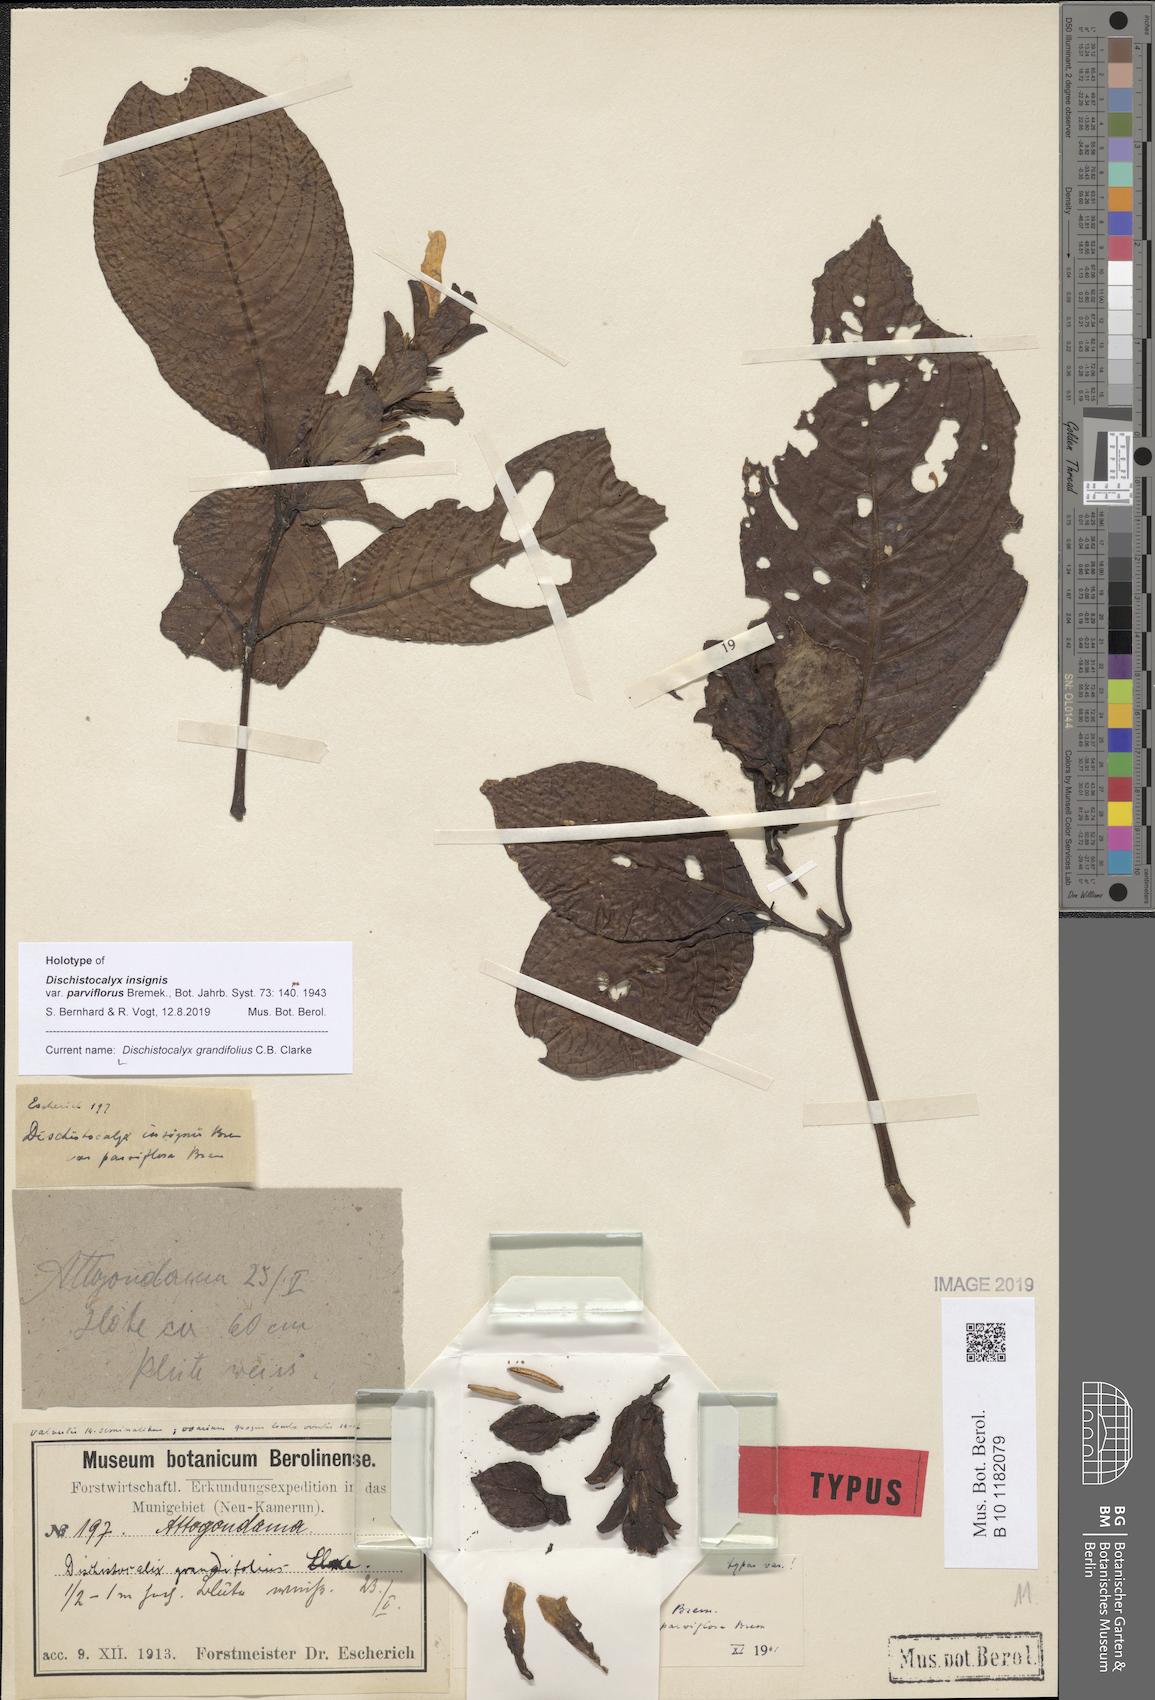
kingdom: Plantae
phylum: Tracheophyta
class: Magnoliopsida
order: Lamiales
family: Acanthaceae
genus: Dischistocalyx
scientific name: Dischistocalyx grandifolius
